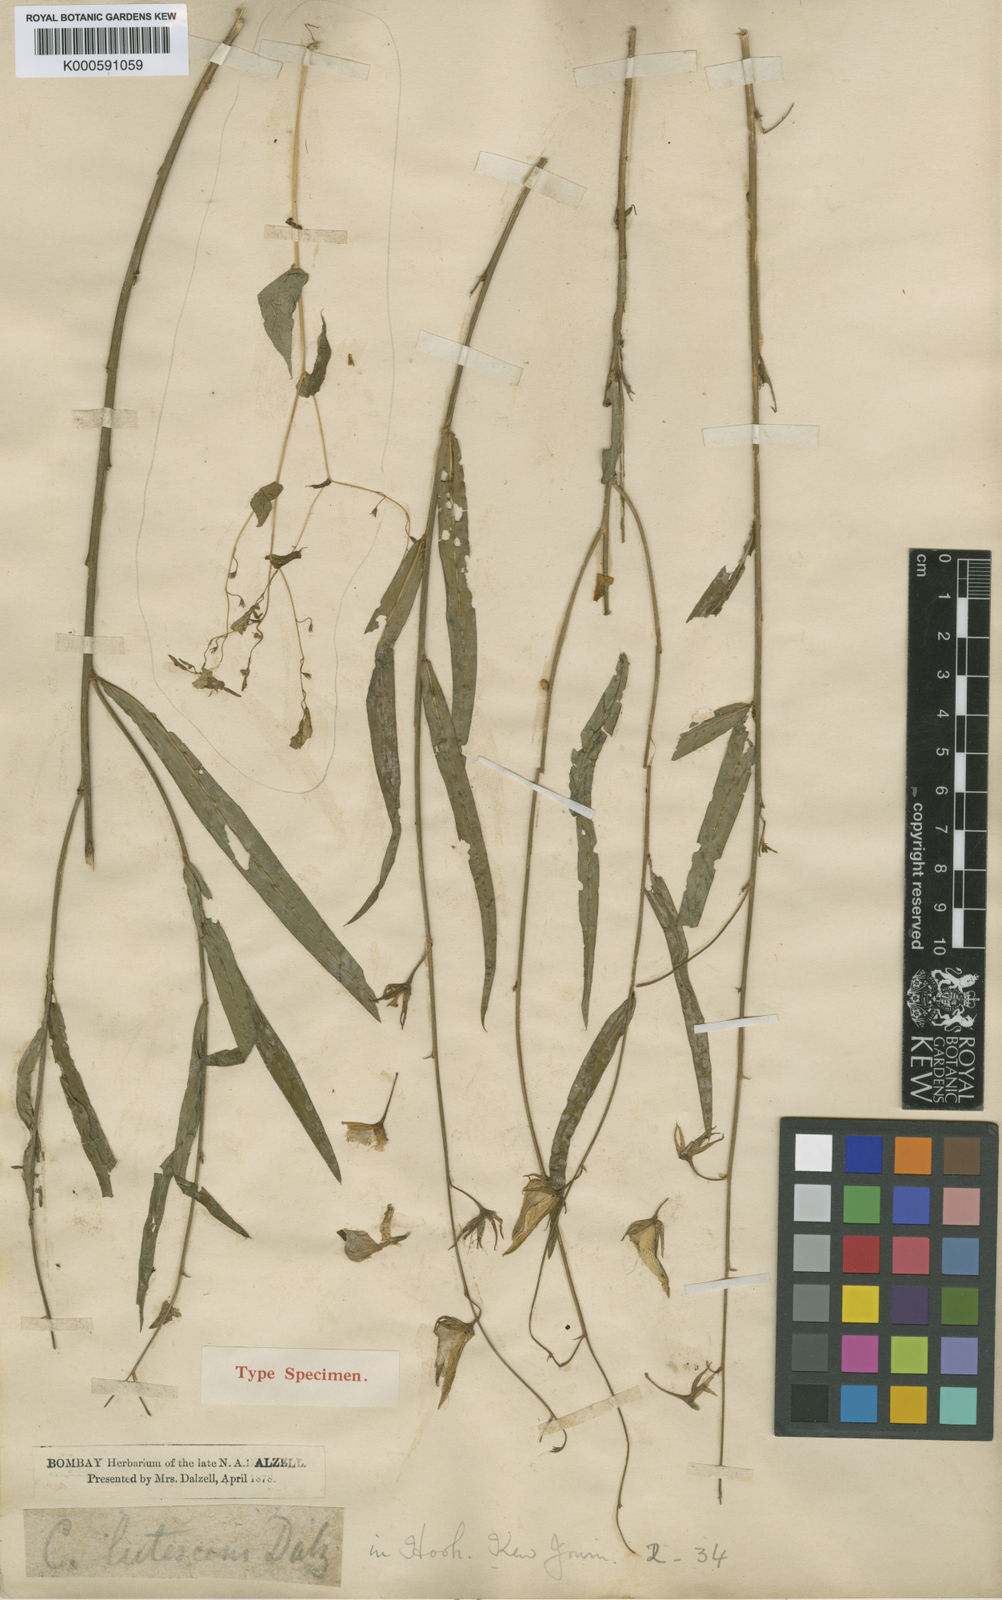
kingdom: Plantae
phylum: Tracheophyta
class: Magnoliopsida
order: Fabales
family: Fabaceae
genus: Crotalaria
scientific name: Crotalaria lutescens
